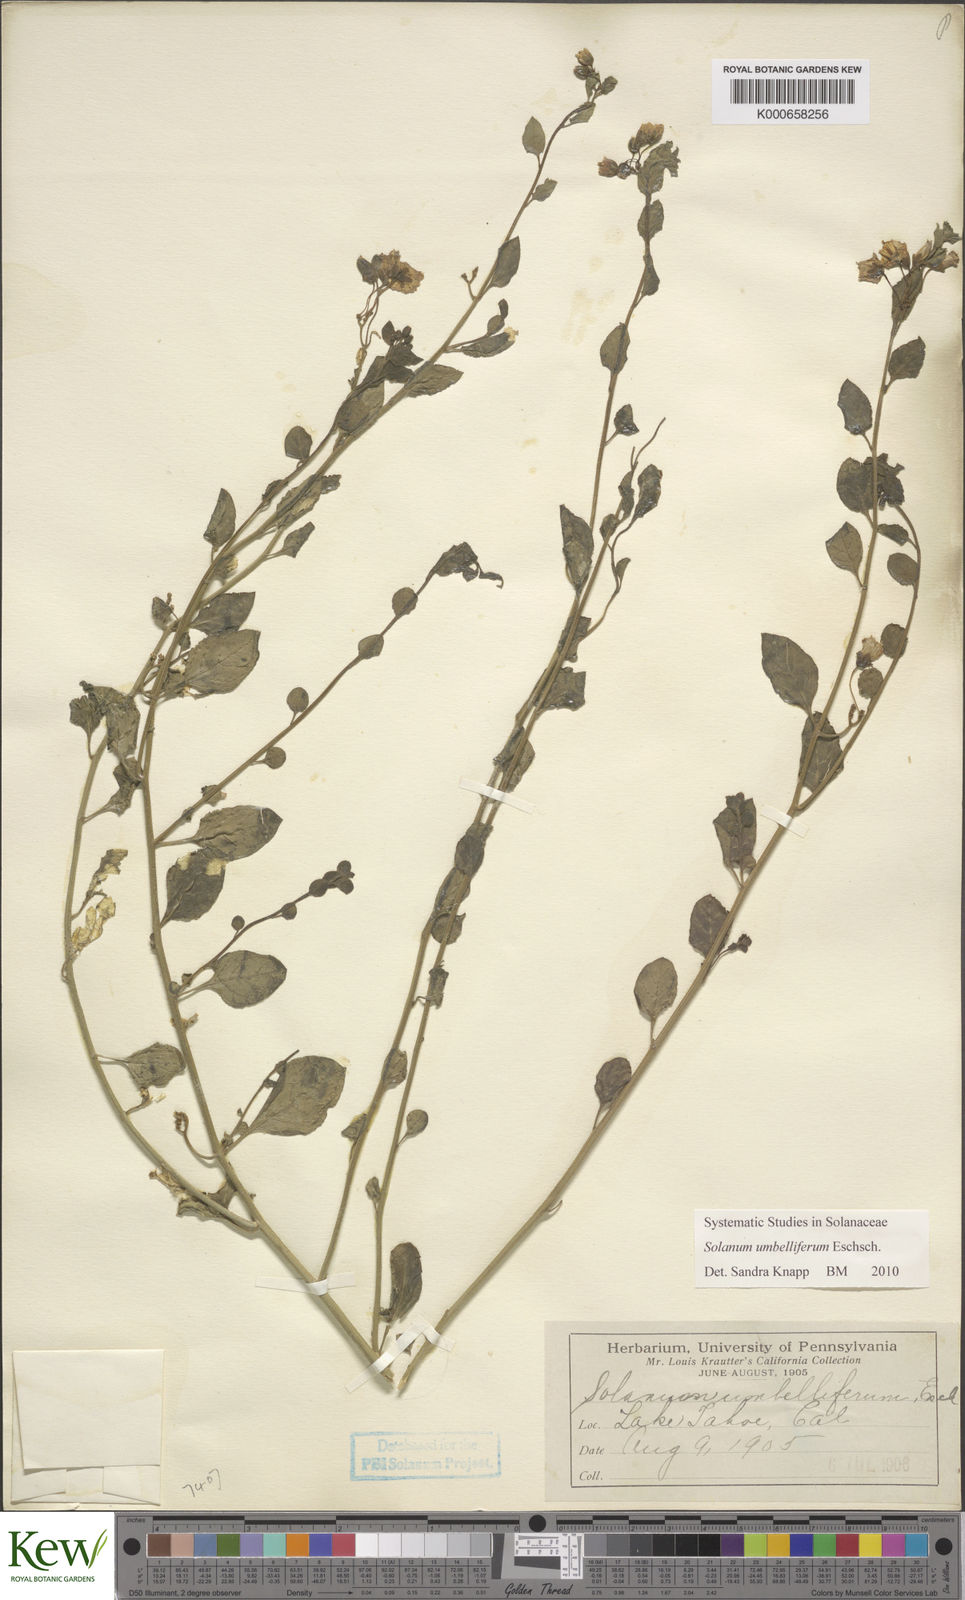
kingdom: Plantae
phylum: Tracheophyta
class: Magnoliopsida
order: Solanales
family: Solanaceae
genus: Solanum
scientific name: Solanum umbelliferum
